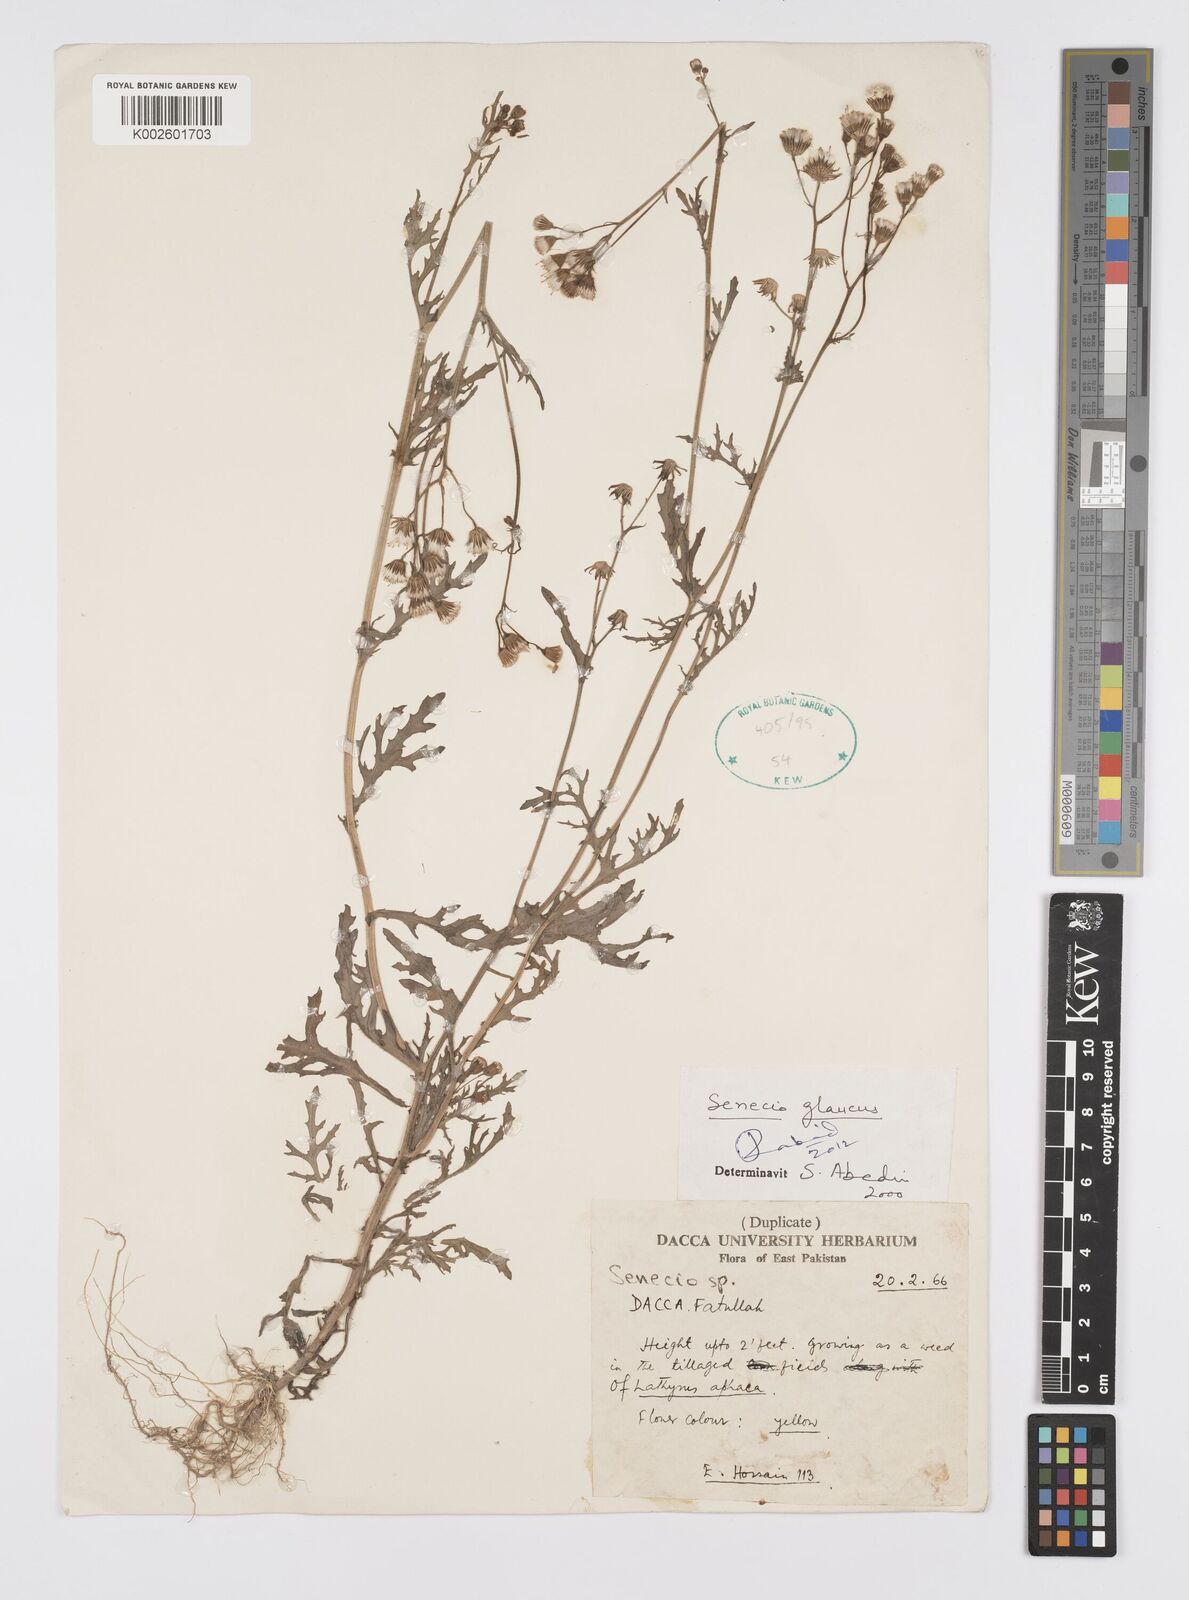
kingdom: Plantae
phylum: Tracheophyta
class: Magnoliopsida
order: Asterales
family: Asteraceae
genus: Senecio
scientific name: Senecio glaucus
